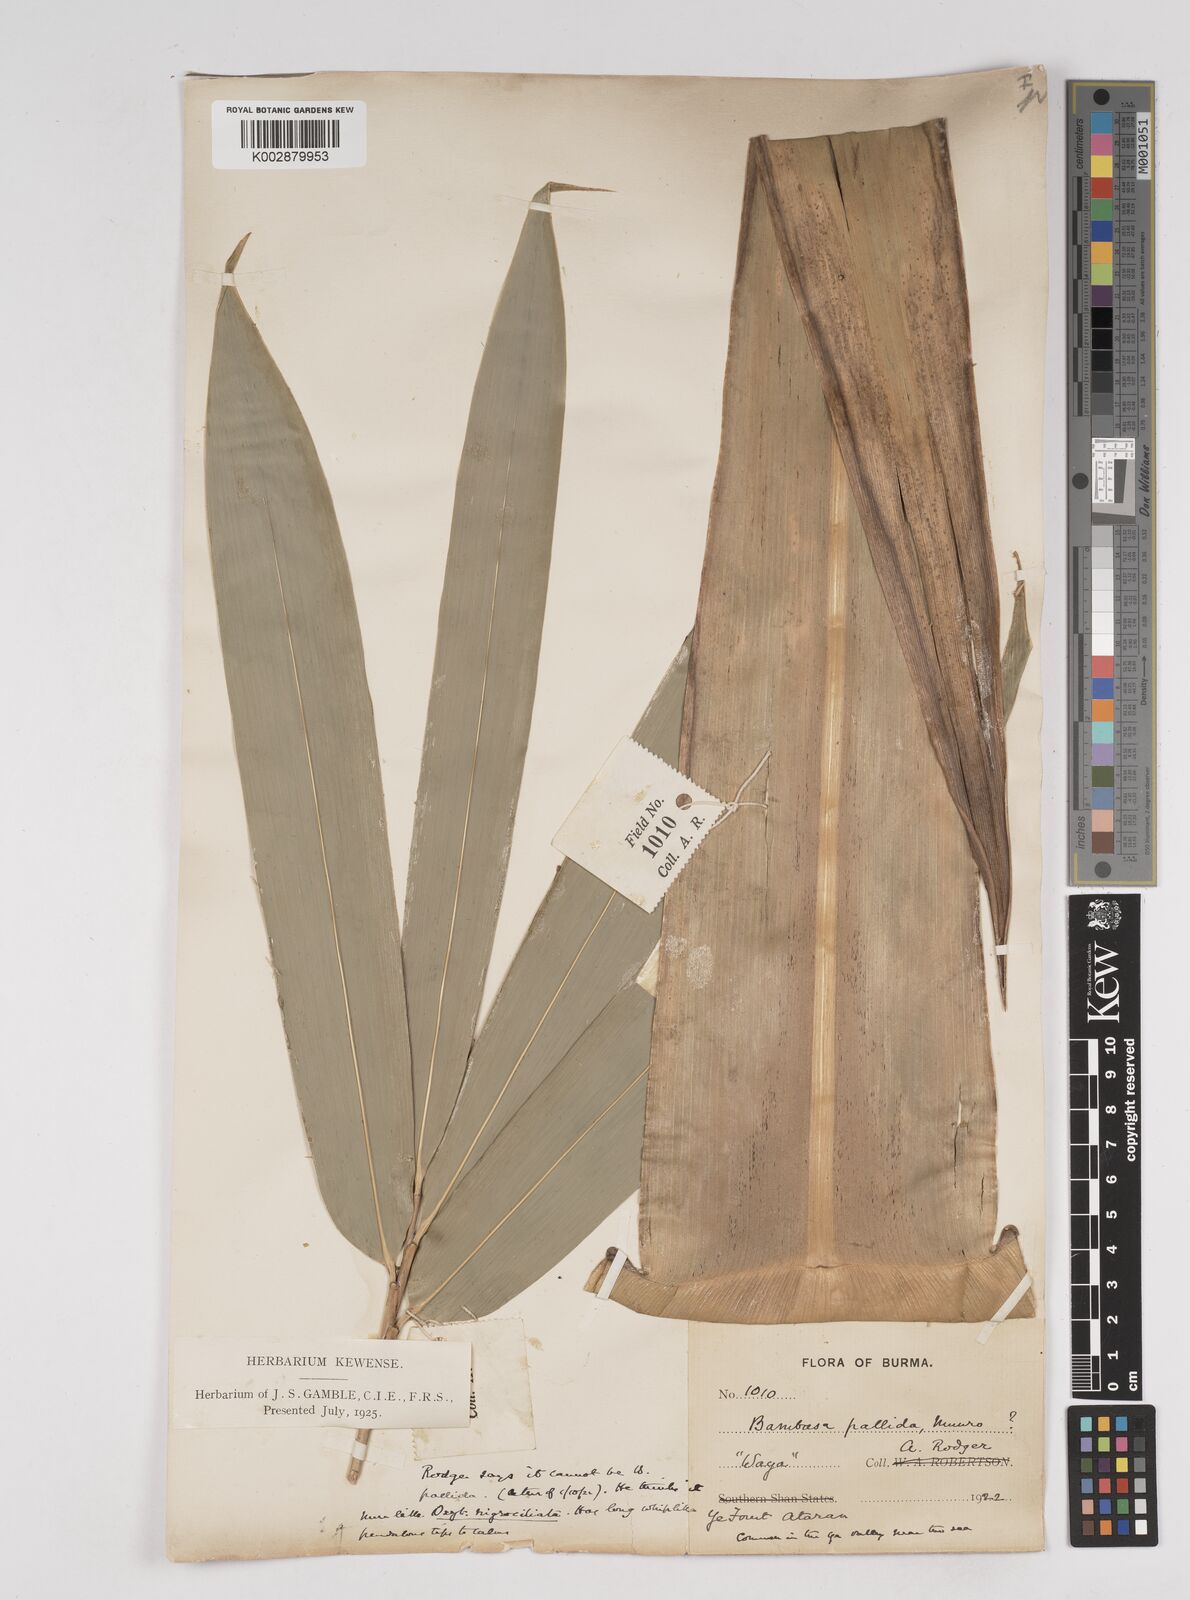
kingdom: Plantae
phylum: Tracheophyta
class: Liliopsida
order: Poales
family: Poaceae
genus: Gigantochloa
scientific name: Gigantochloa nigrociliata
